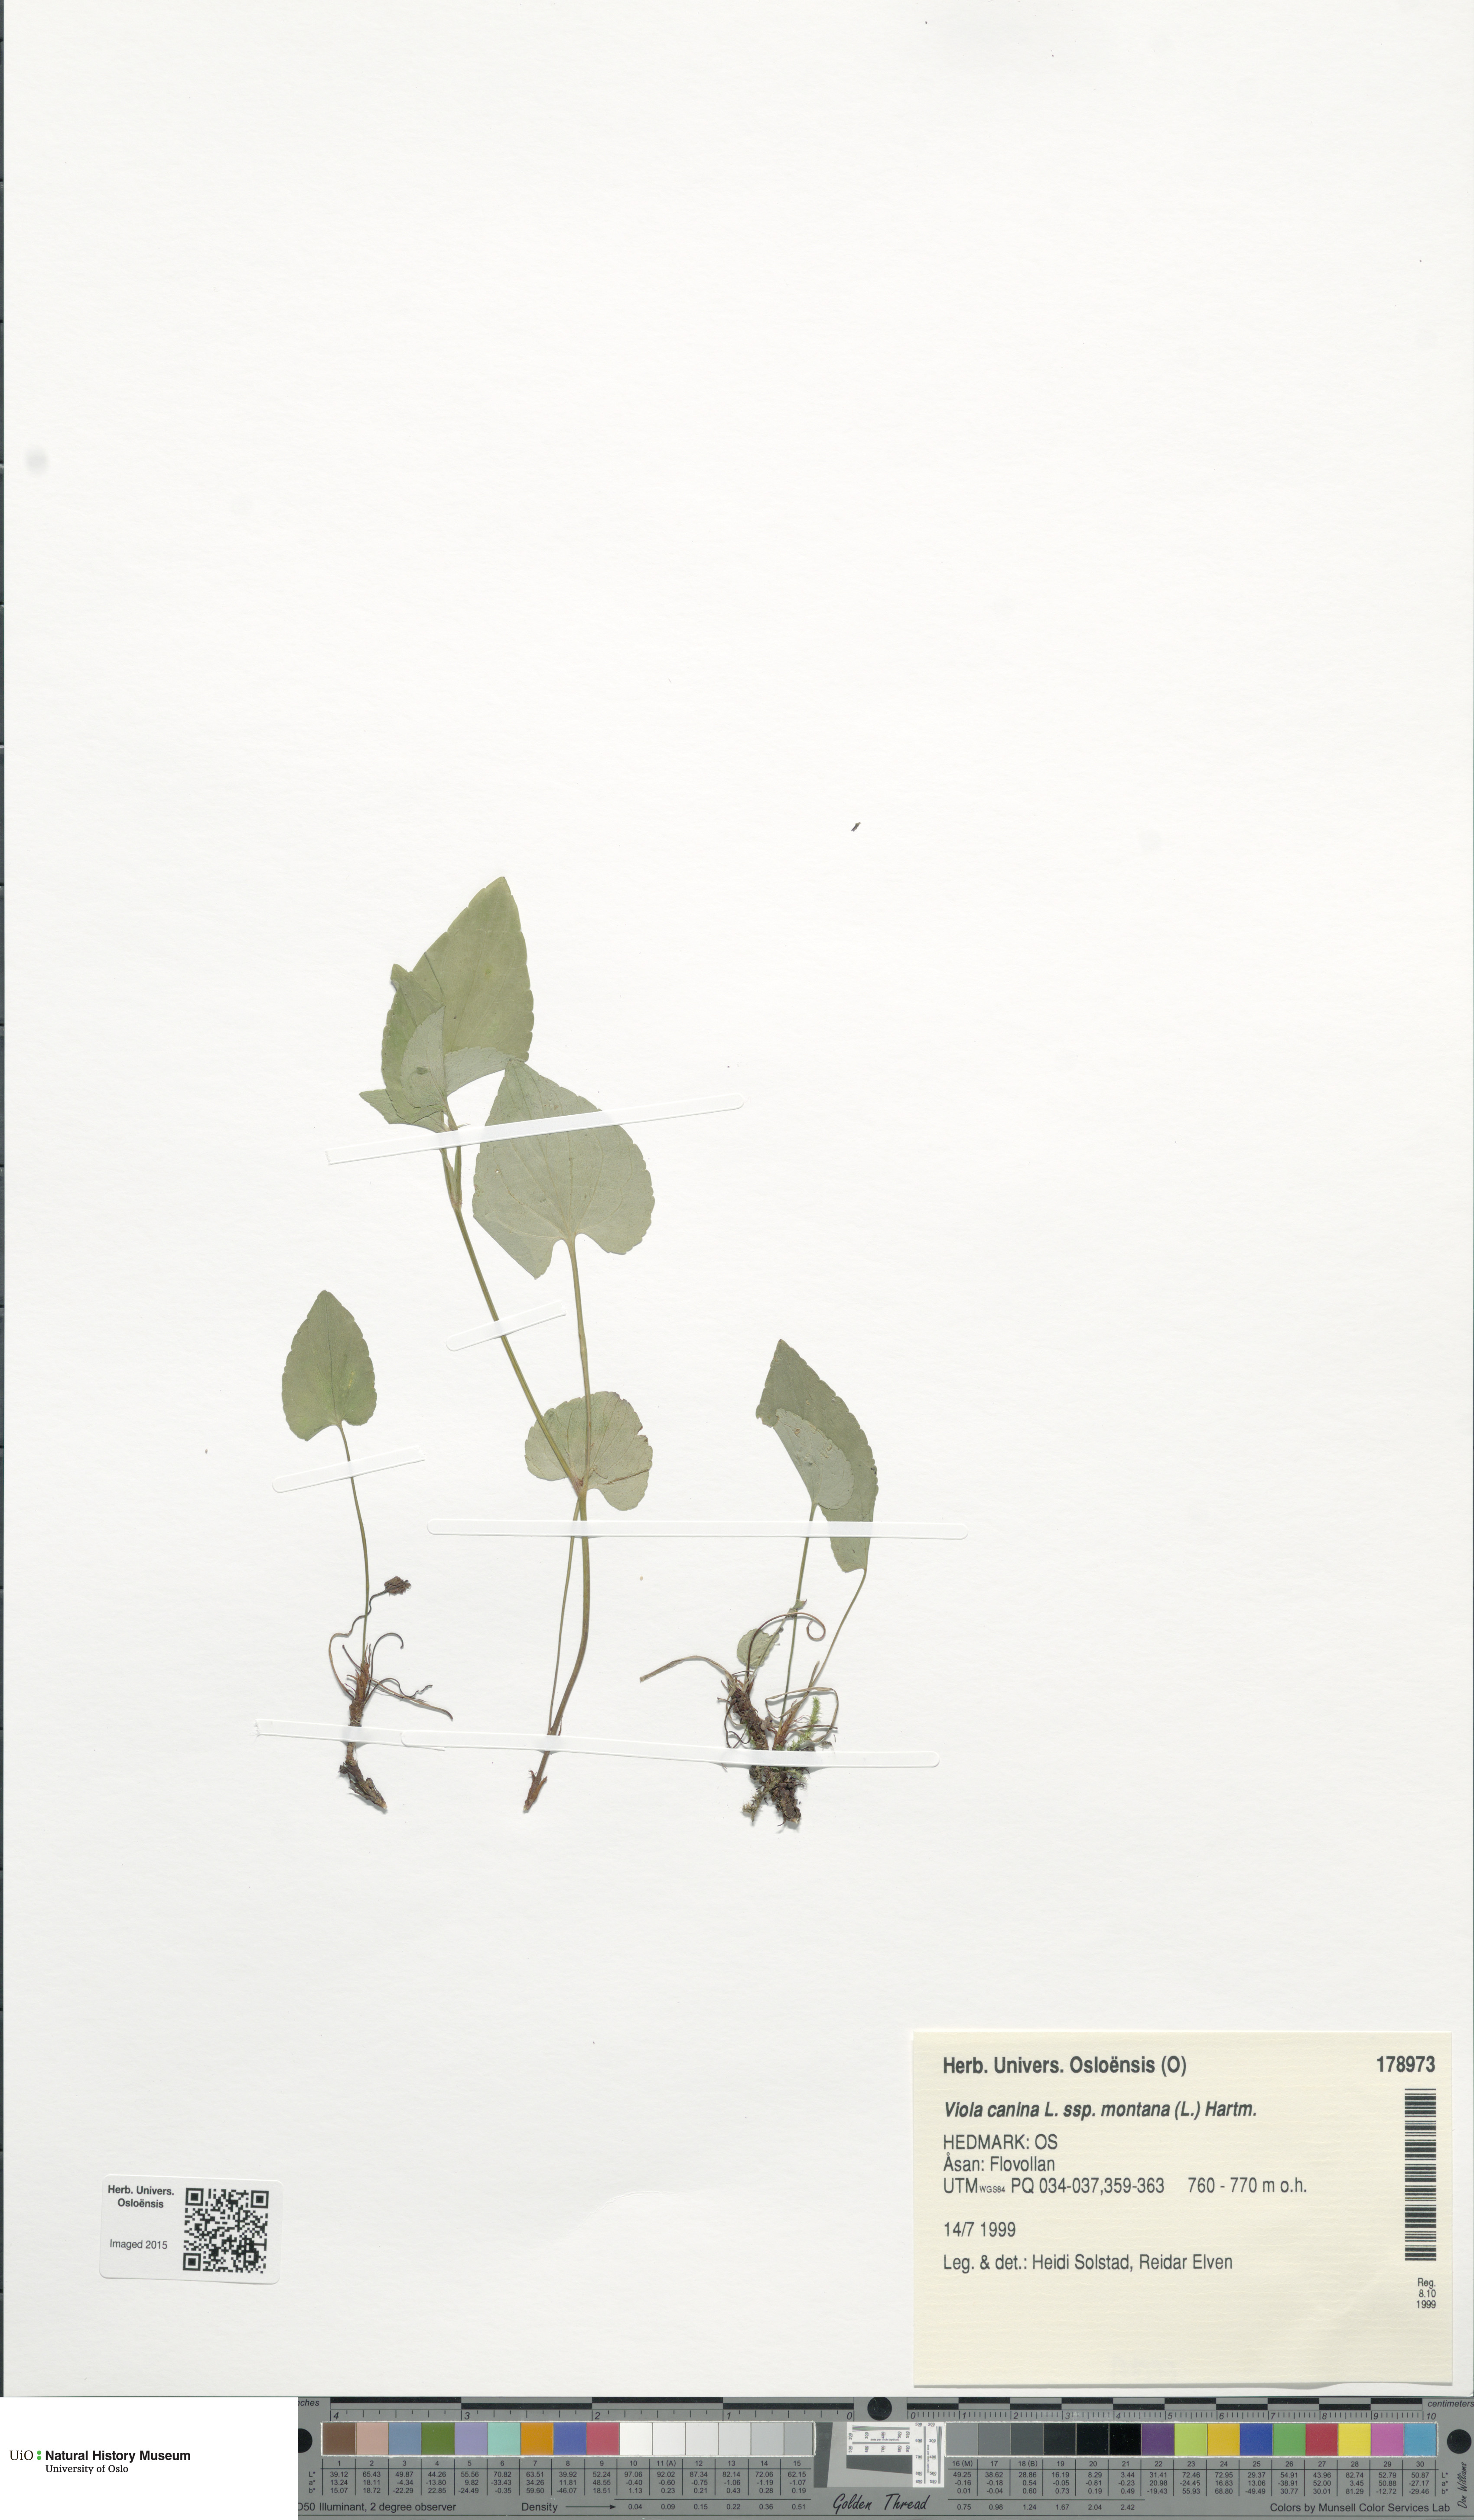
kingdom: Plantae
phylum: Tracheophyta
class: Magnoliopsida
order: Malpighiales
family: Violaceae
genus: Viola
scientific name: Viola ruppii
